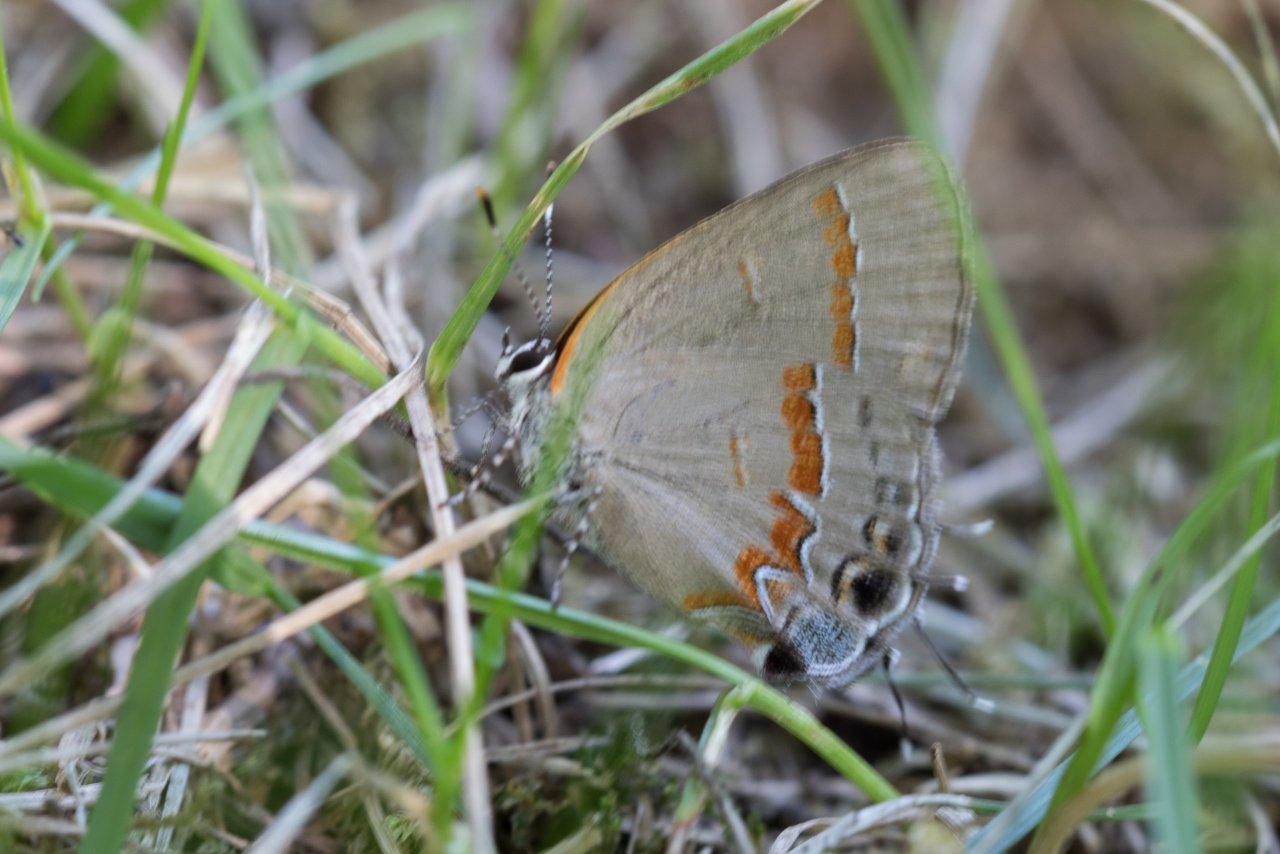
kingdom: Animalia
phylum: Arthropoda
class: Insecta
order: Lepidoptera
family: Lycaenidae
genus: Calycopis
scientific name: Calycopis cecrops
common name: Red-banded Hairstreak
